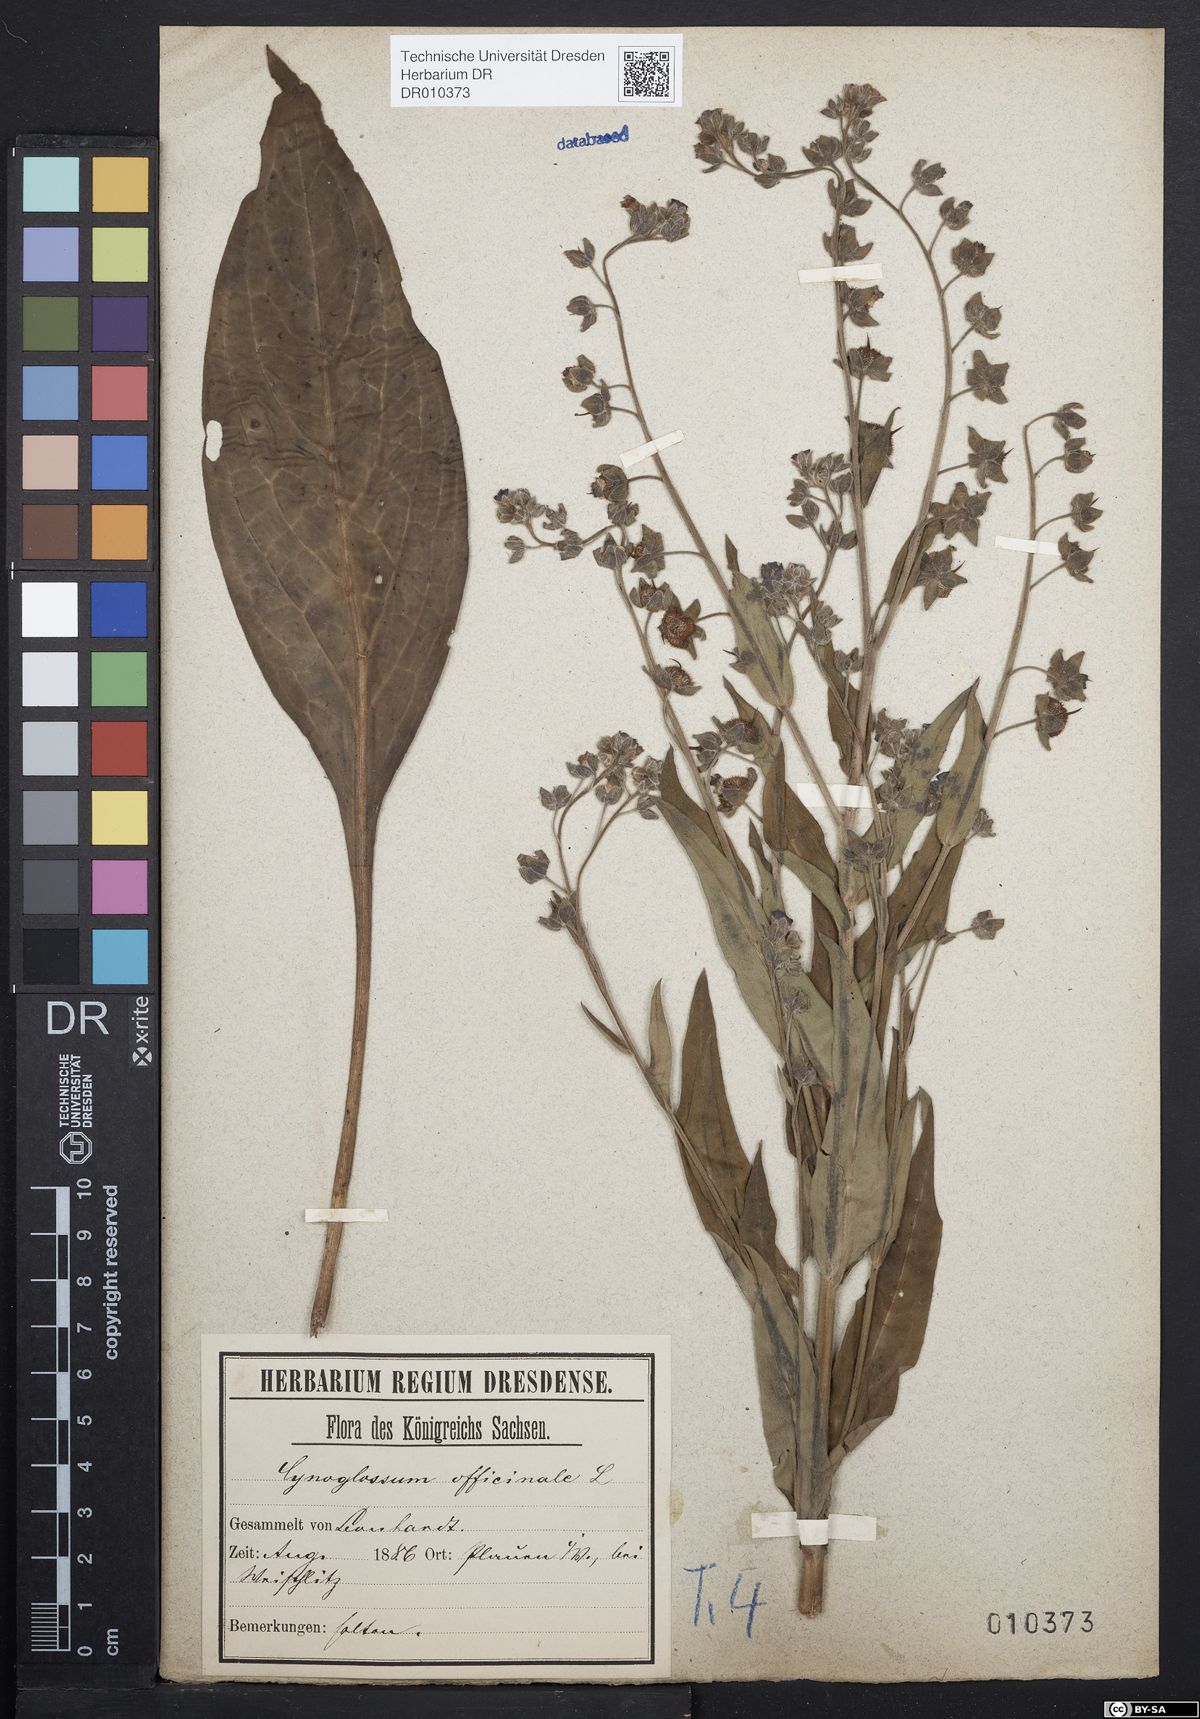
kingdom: Plantae
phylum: Tracheophyta
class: Magnoliopsida
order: Boraginales
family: Boraginaceae
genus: Cynoglossum
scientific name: Cynoglossum officinale
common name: Hound's-tongue
